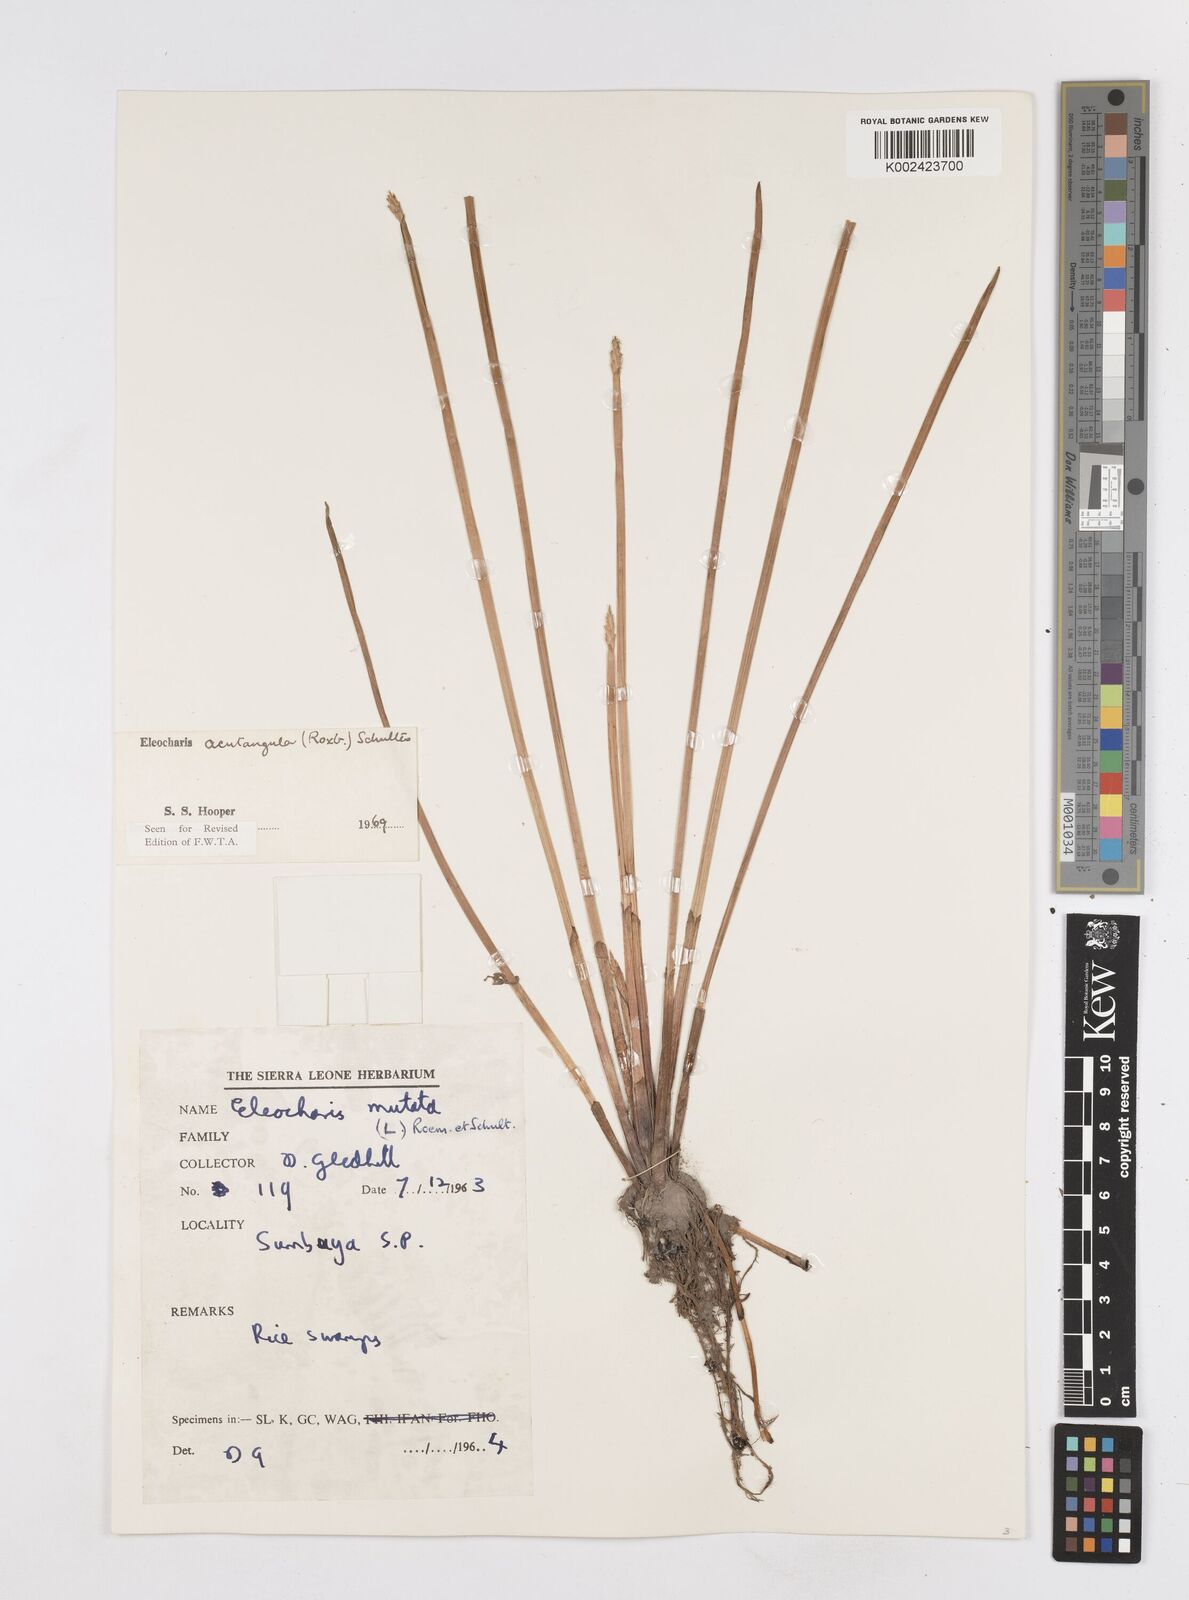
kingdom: Plantae
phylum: Tracheophyta
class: Liliopsida
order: Poales
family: Cyperaceae
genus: Eleocharis
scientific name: Eleocharis acutangula
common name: Acute spikerush
